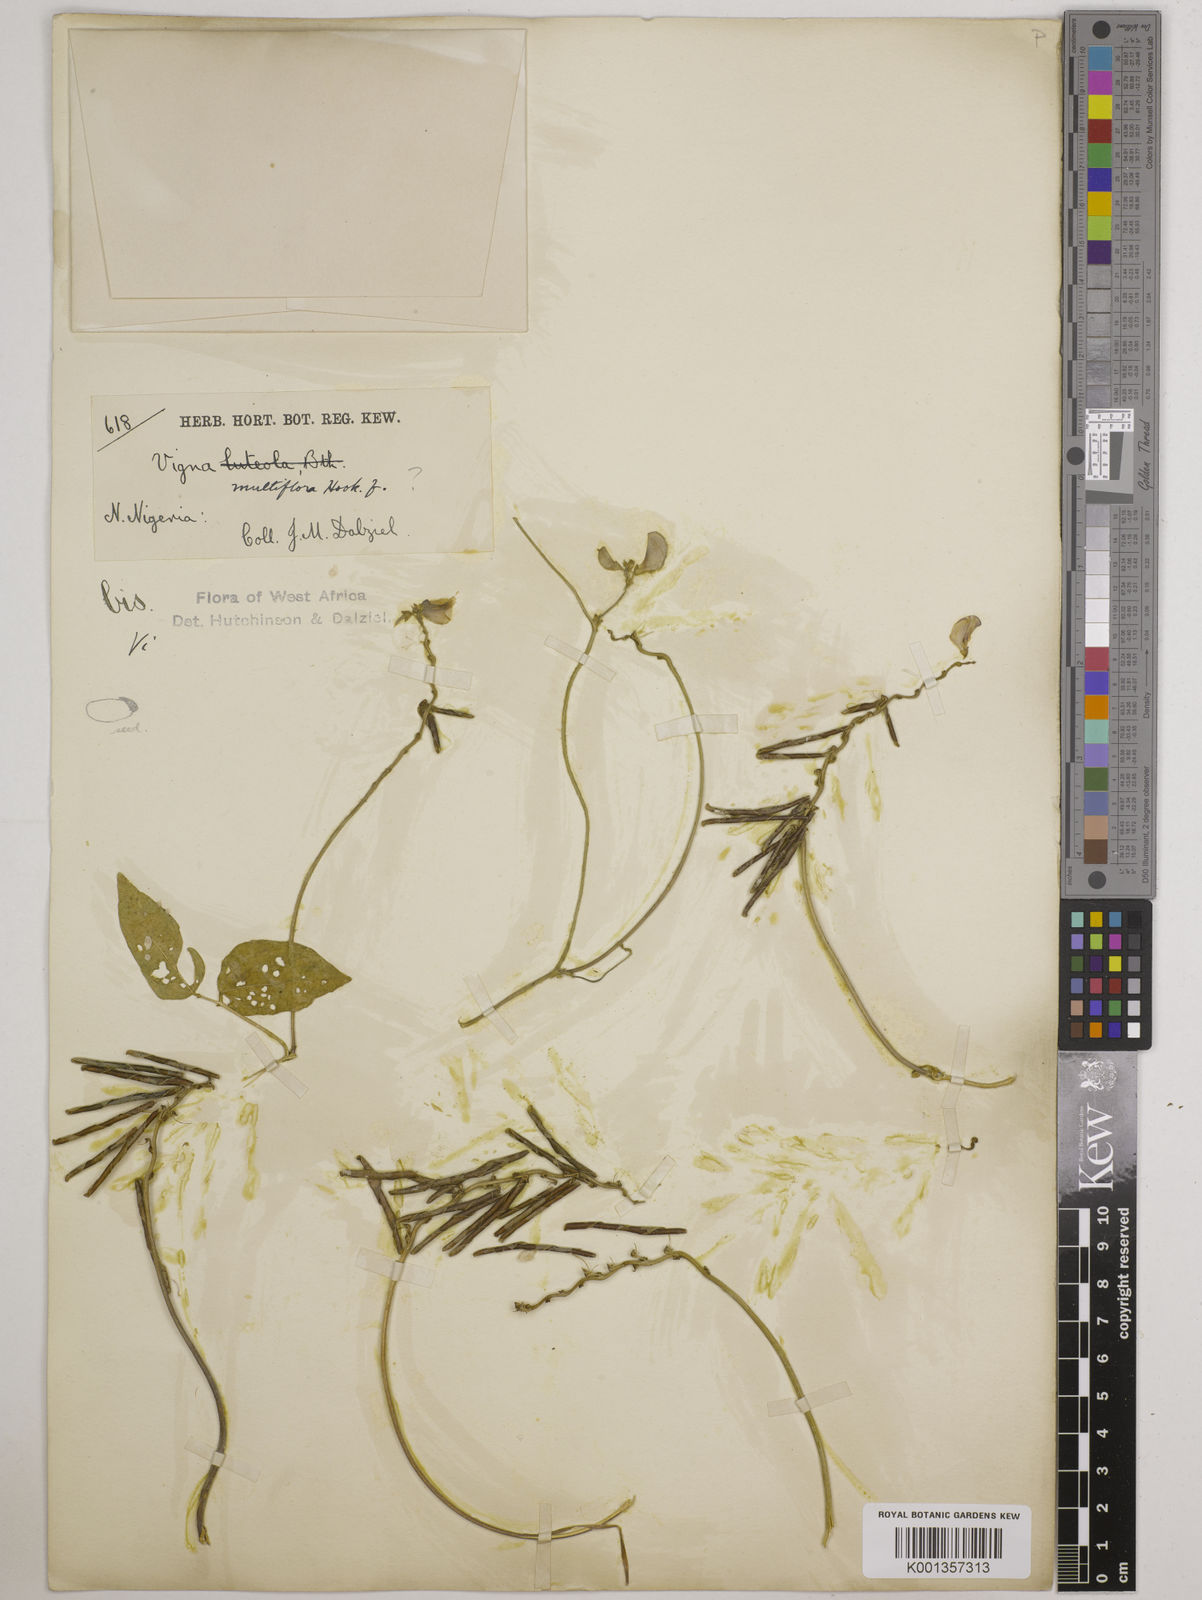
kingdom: Plantae
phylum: Tracheophyta
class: Magnoliopsida
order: Fabales
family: Fabaceae
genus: Vigna
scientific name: Vigna racemosa
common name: Beans not eaten
